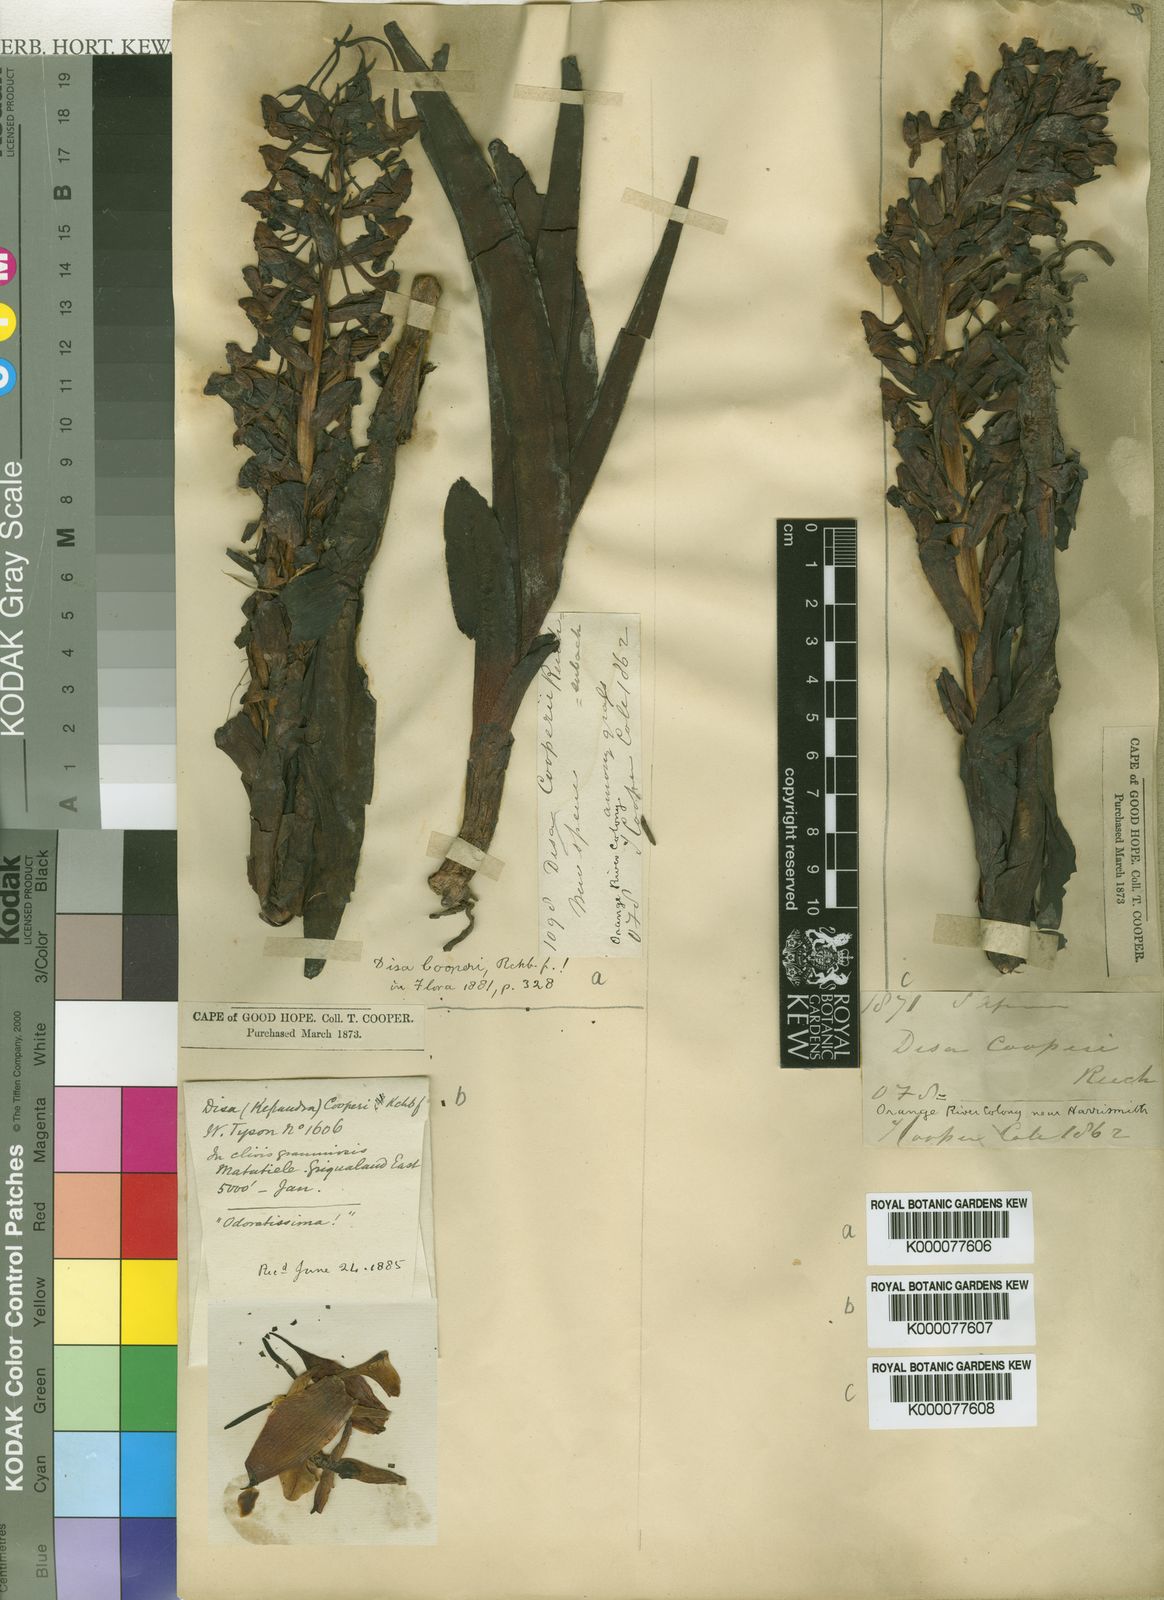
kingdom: Plantae
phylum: Tracheophyta
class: Liliopsida
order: Asparagales
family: Orchidaceae
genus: Disa
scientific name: Disa cooperi
